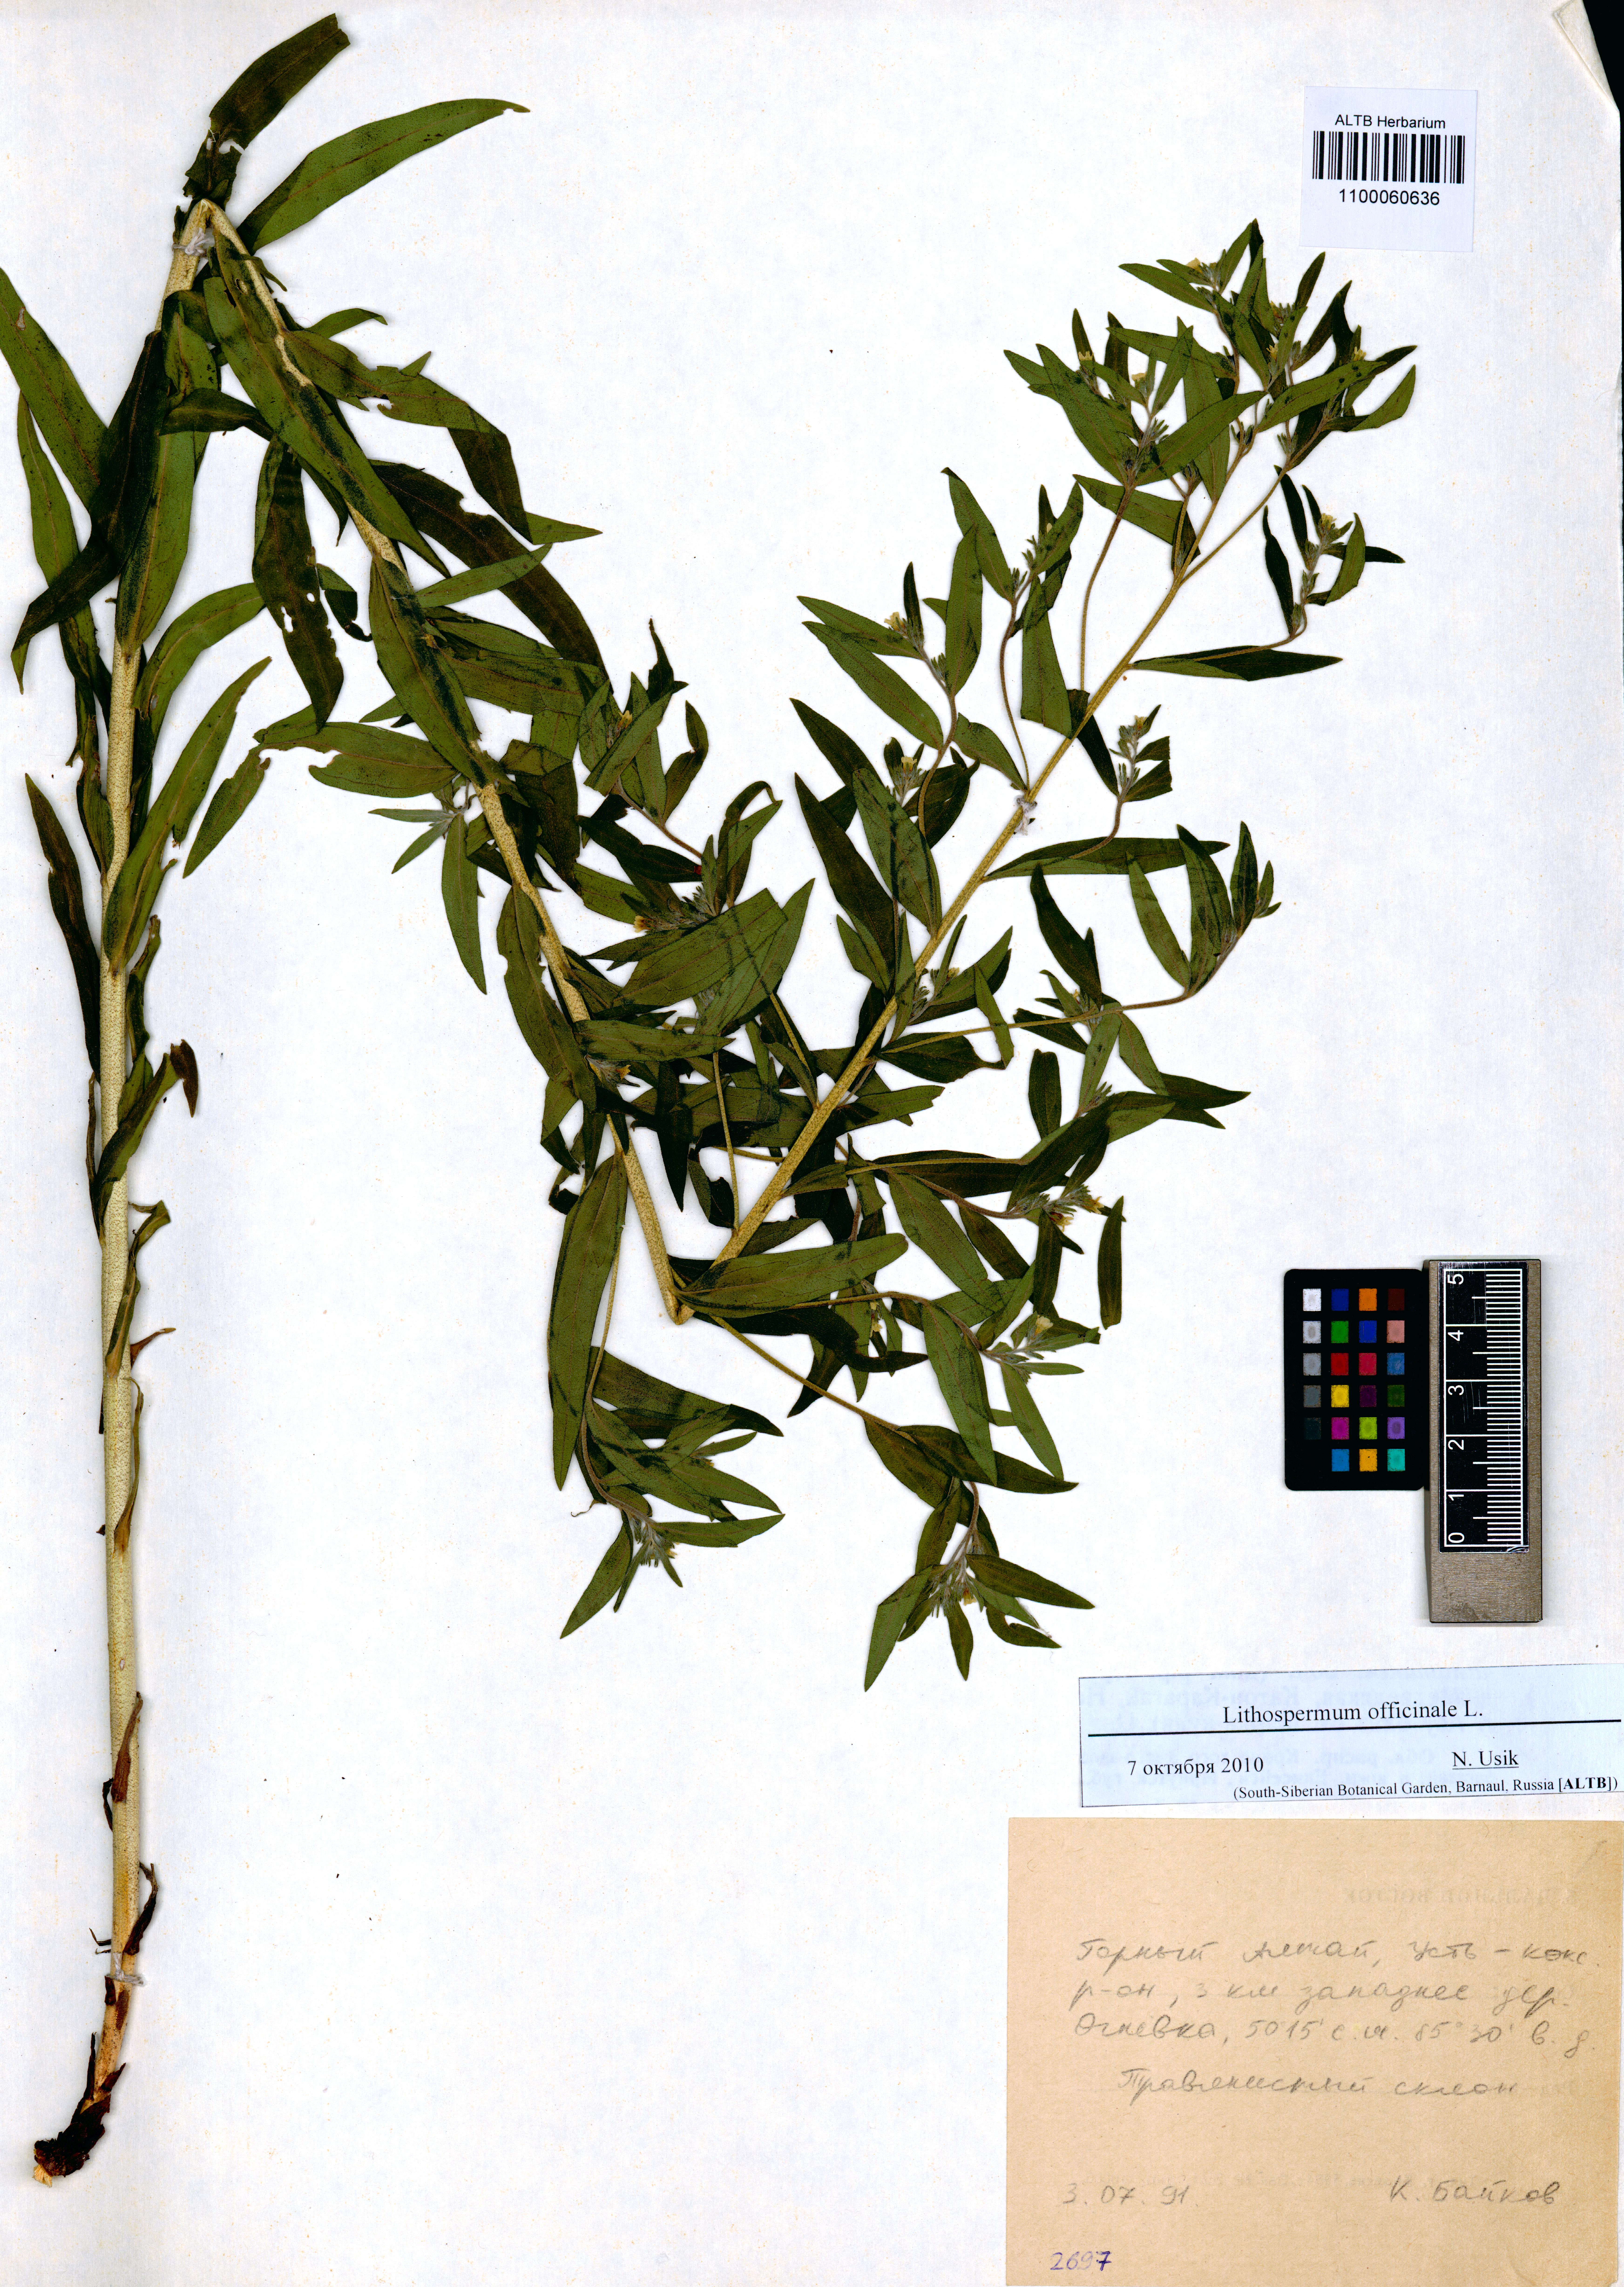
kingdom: Plantae
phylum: Tracheophyta
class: Magnoliopsida
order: Boraginales
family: Boraginaceae
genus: Lithospermum
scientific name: Lithospermum officinale
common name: Common gromwell
